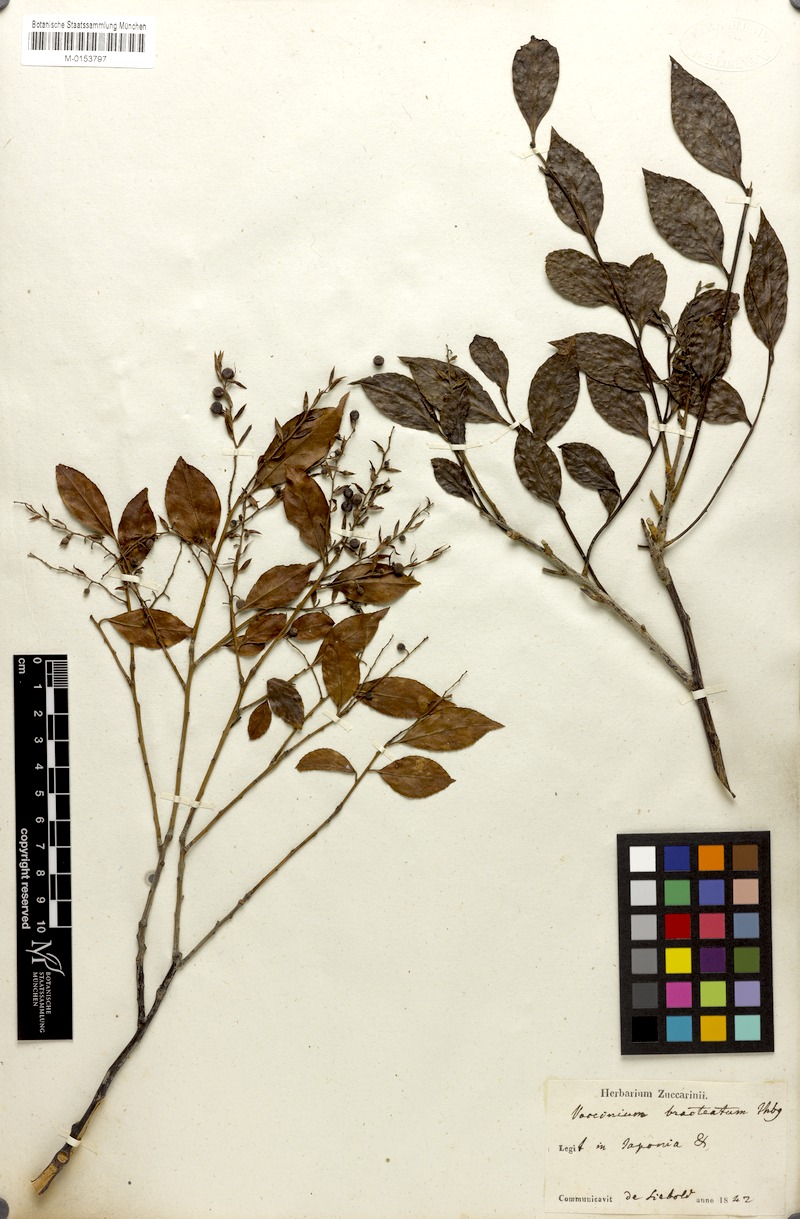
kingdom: Plantae
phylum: Tracheophyta
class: Magnoliopsida
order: Ericales
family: Ericaceae
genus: Vaccinium
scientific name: Vaccinium bracteatum
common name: Sea bilberry
